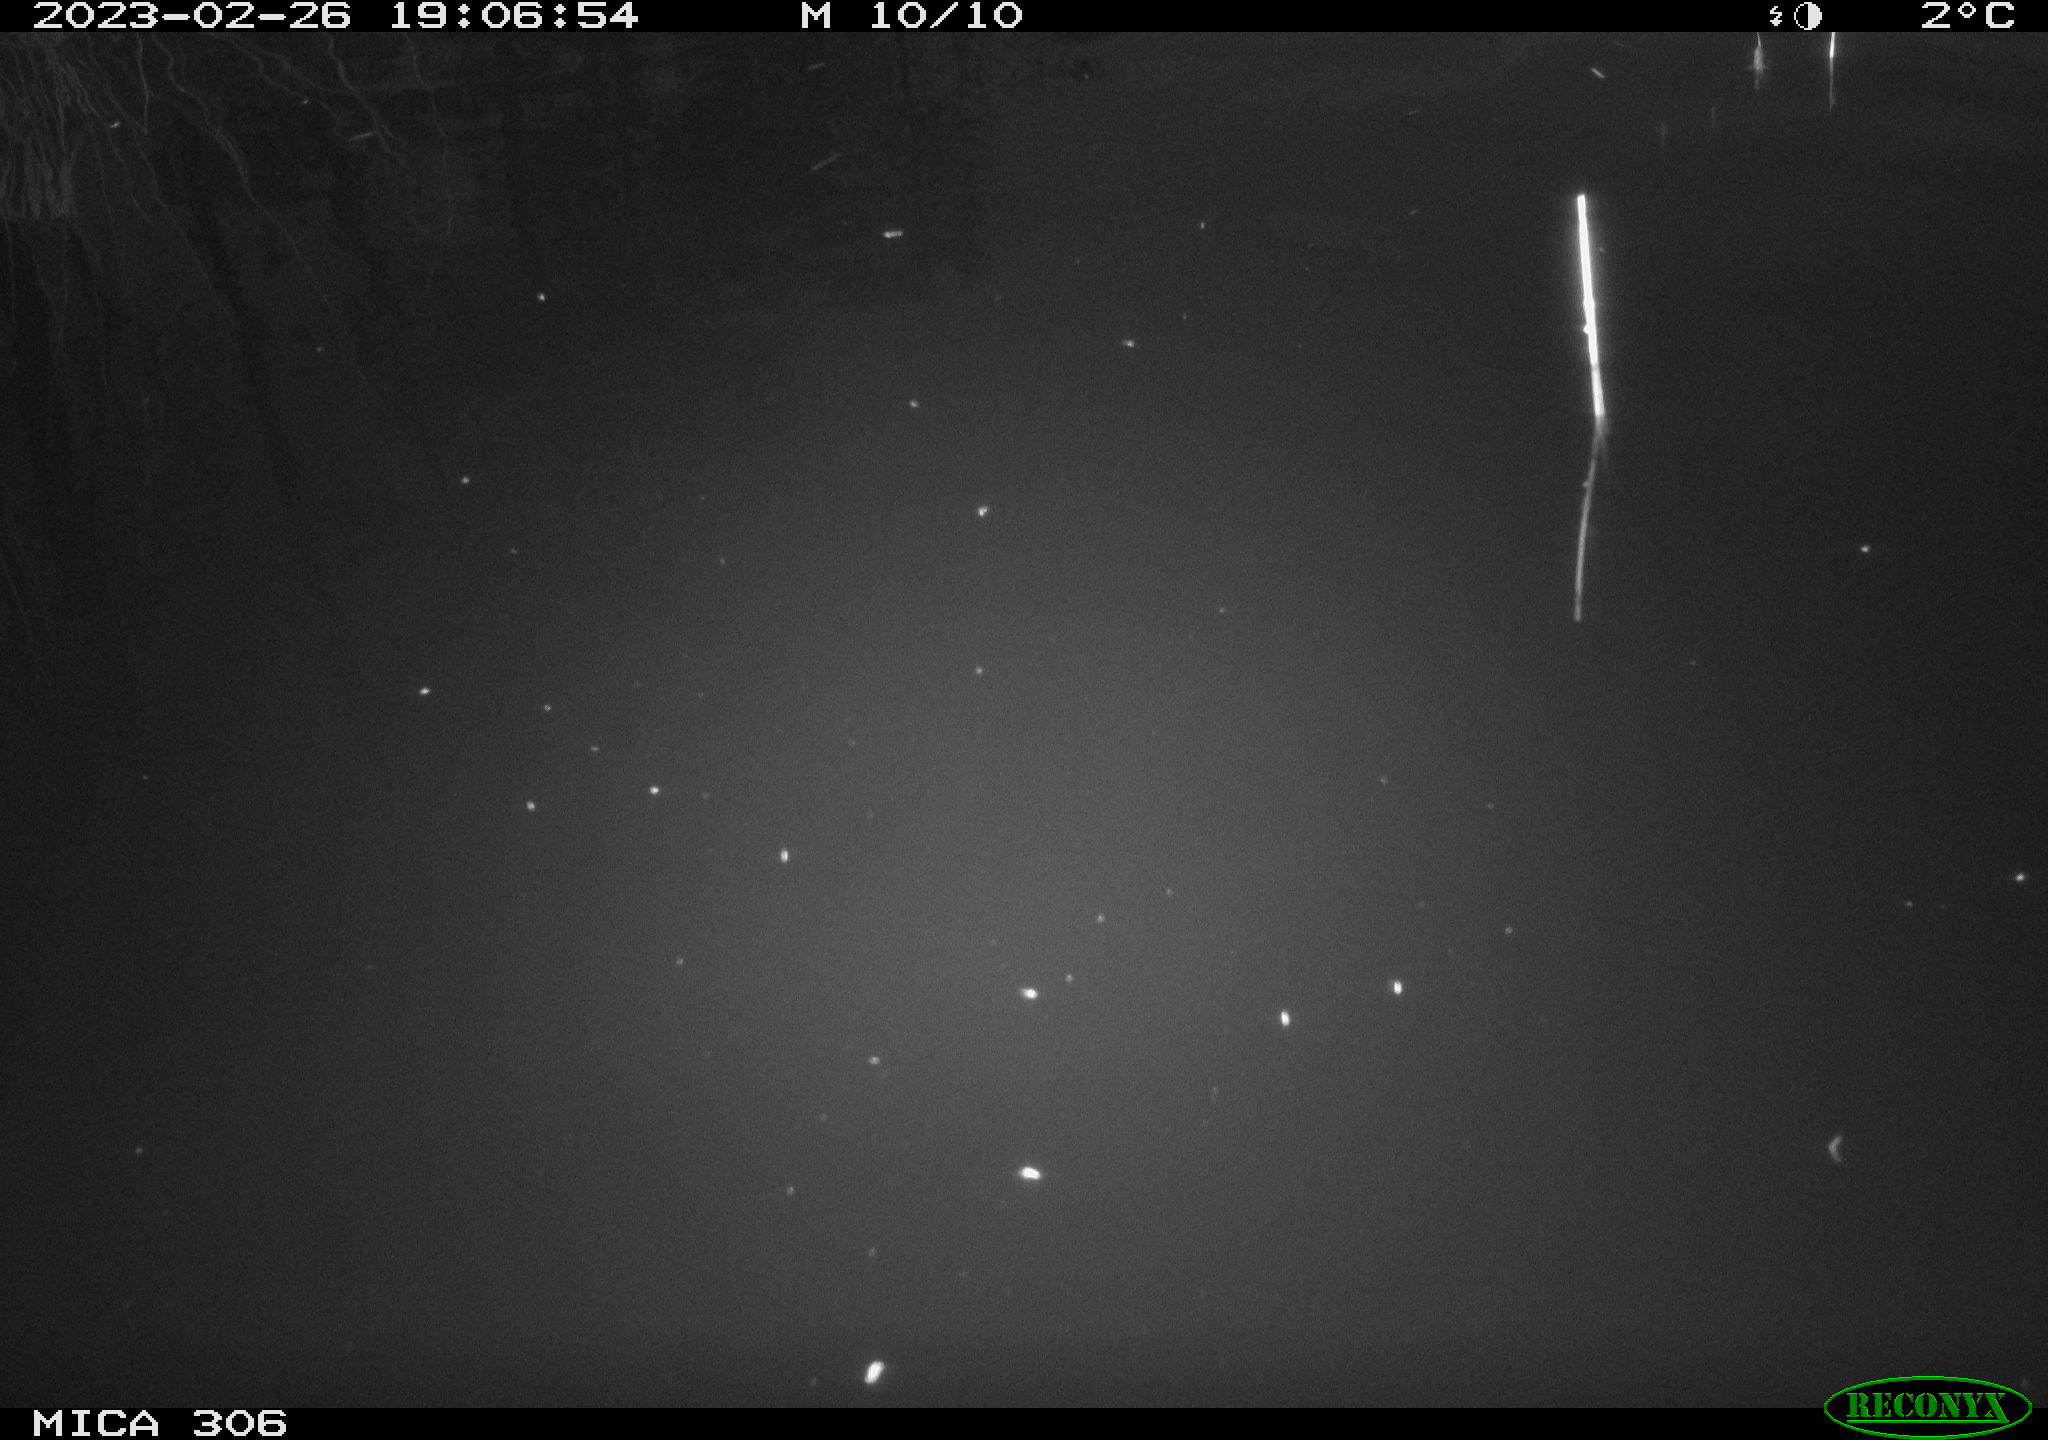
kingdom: Animalia
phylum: Chordata
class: Mammalia
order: Rodentia
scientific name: Rodentia
